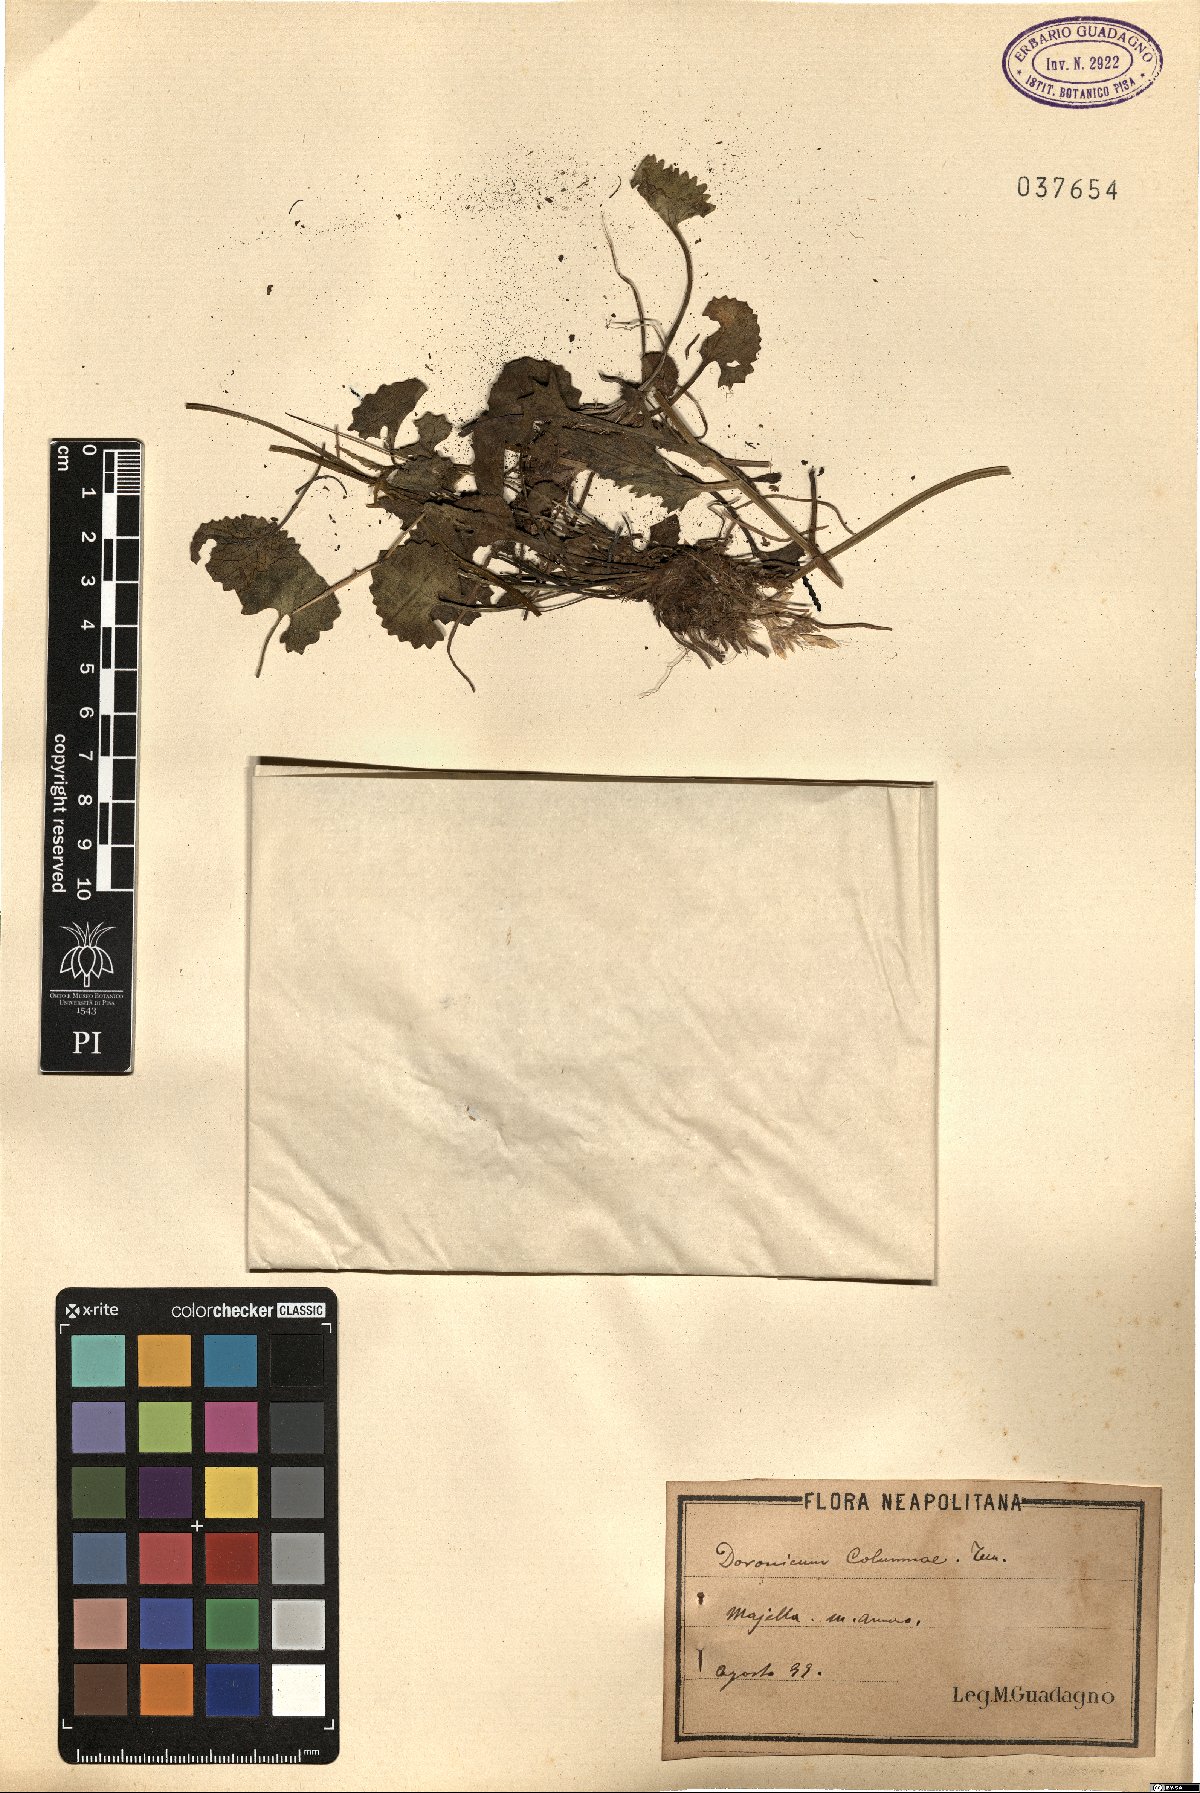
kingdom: Plantae
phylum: Tracheophyta
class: Magnoliopsida
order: Asterales
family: Asteraceae
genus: Doronicum
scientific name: Doronicum columnae
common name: Eastern leopard's-bane
